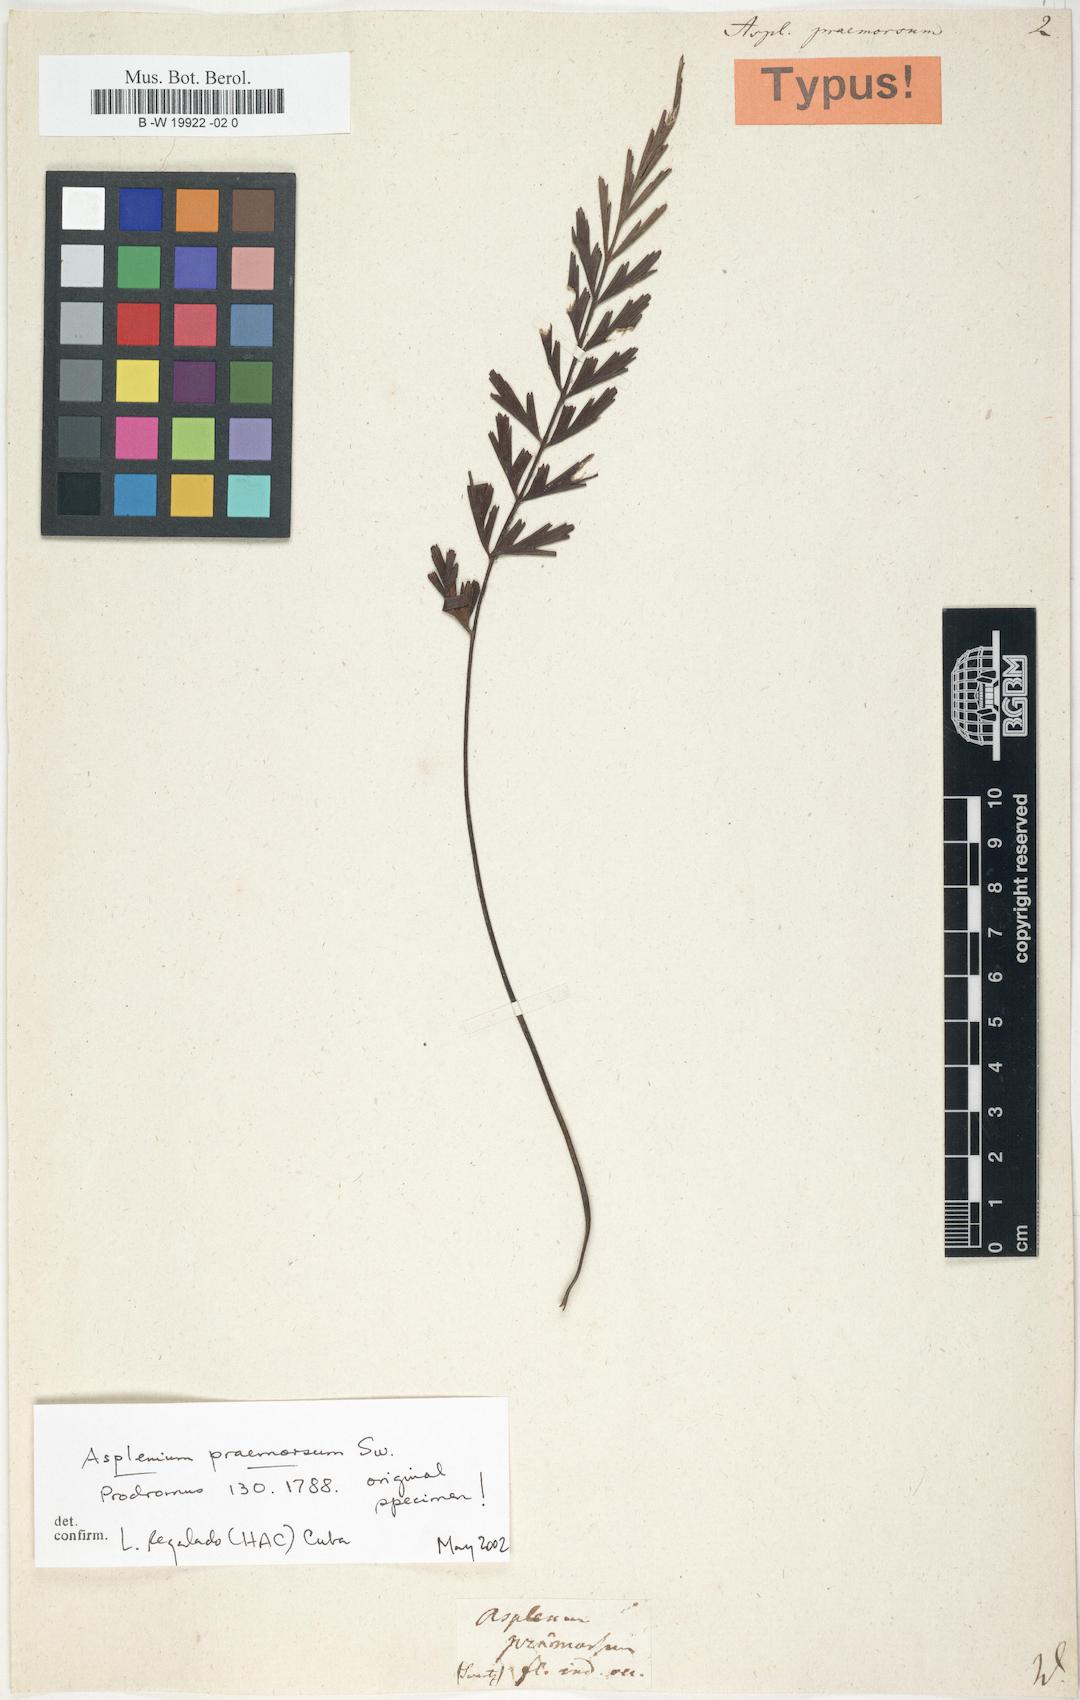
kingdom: Plantae
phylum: Tracheophyta
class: Polypodiopsida
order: Polypodiales
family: Aspleniaceae
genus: Asplenium
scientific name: Asplenium praemorsum
